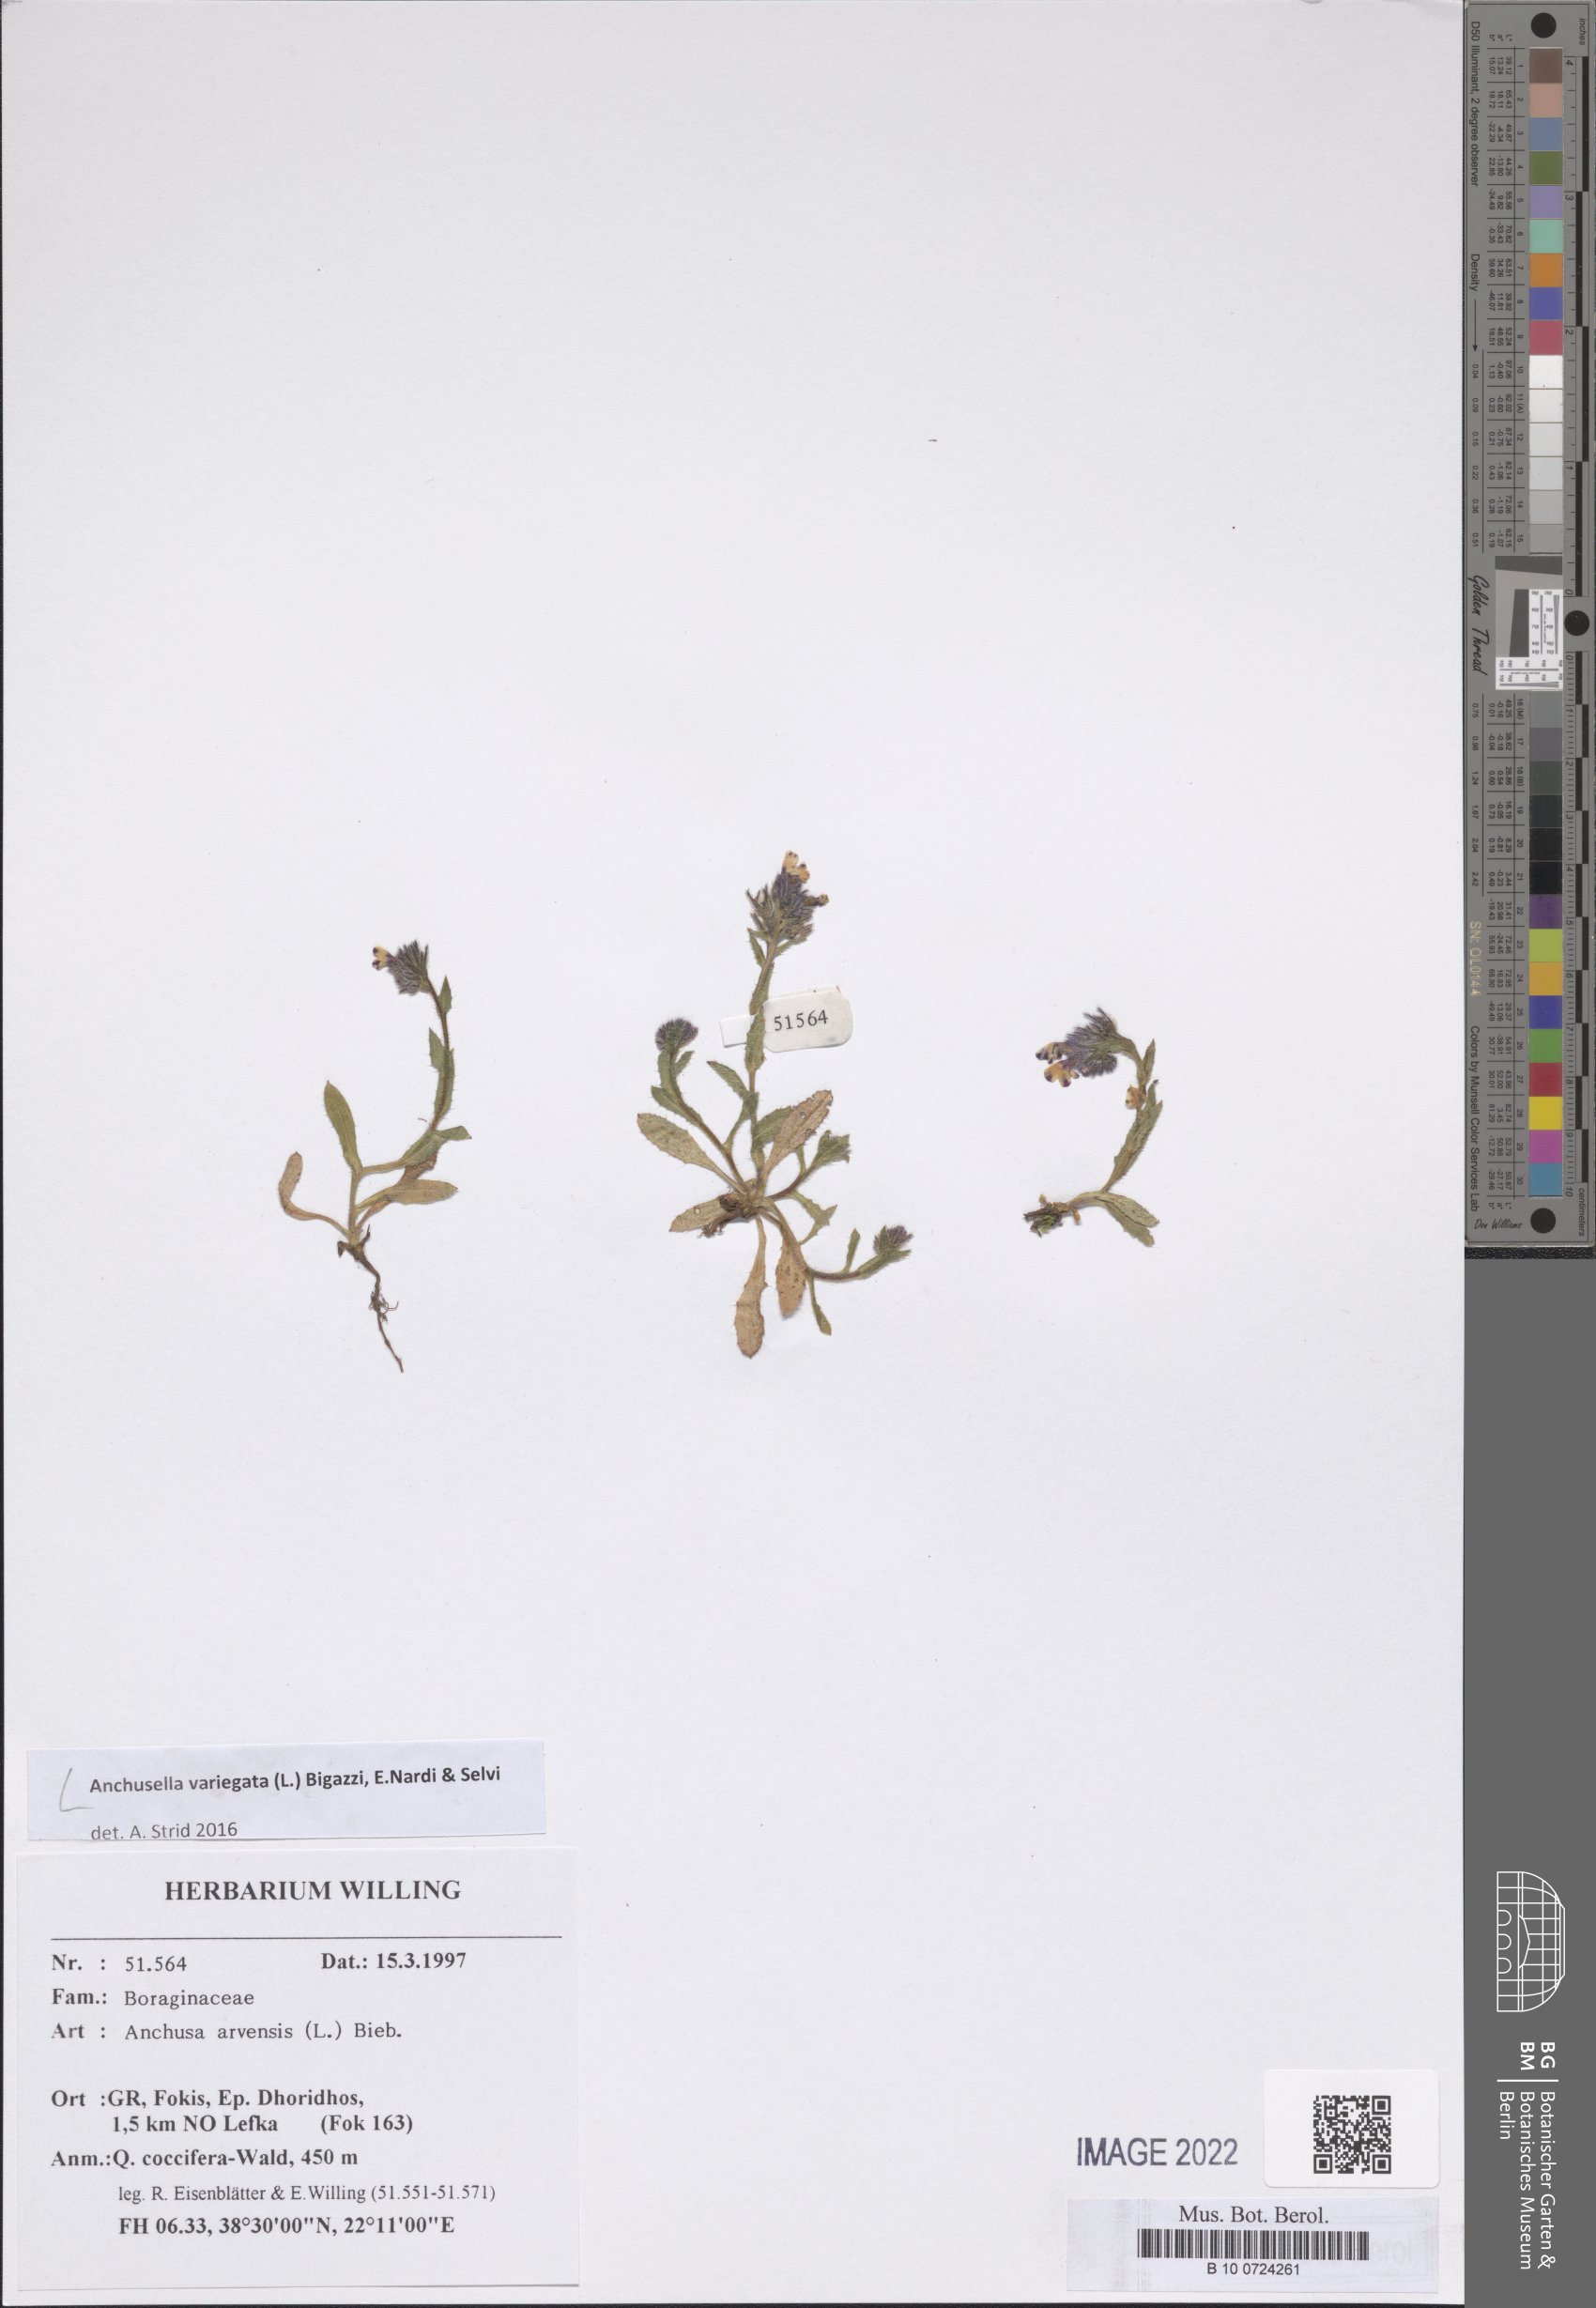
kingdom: Plantae
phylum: Tracheophyta
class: Magnoliopsida
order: Boraginales
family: Boraginaceae
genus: Anchusella
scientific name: Anchusella variegata
